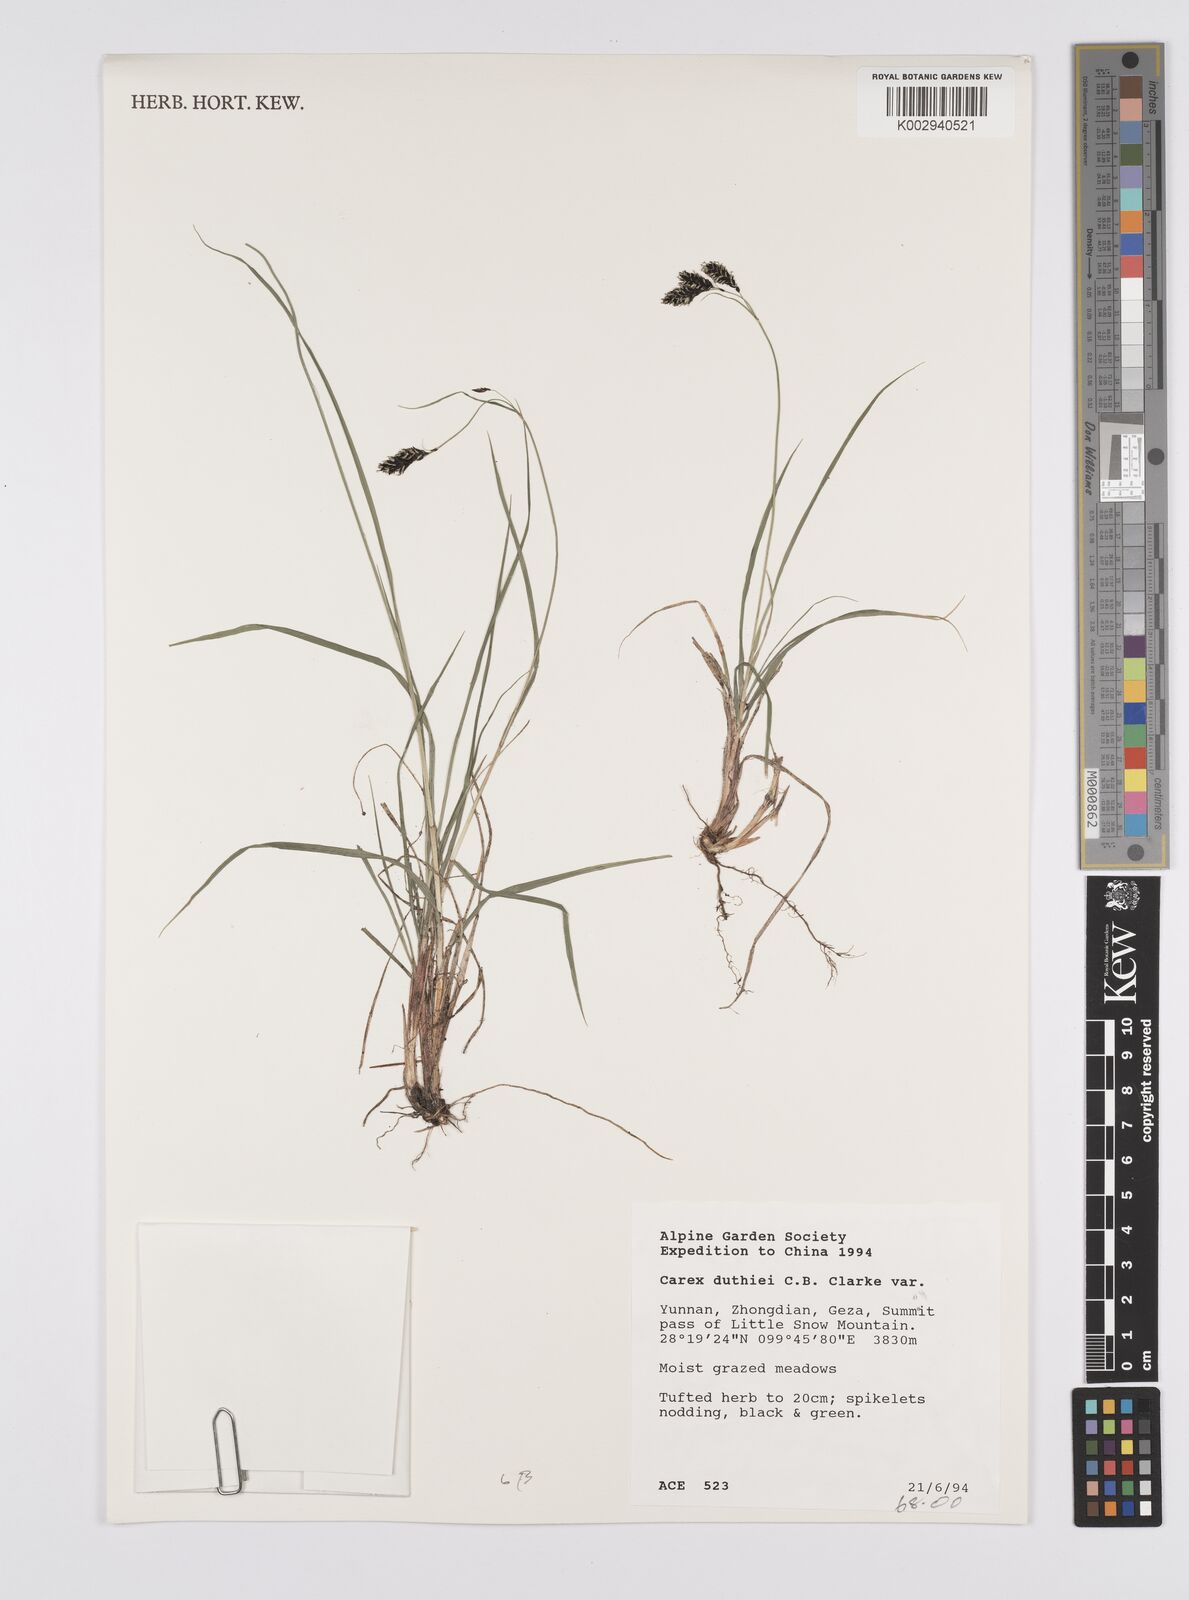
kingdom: Plantae
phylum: Tracheophyta
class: Liliopsida
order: Poales
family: Cyperaceae
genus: Carex
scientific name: Carex atrata
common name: Black alpine sedge
